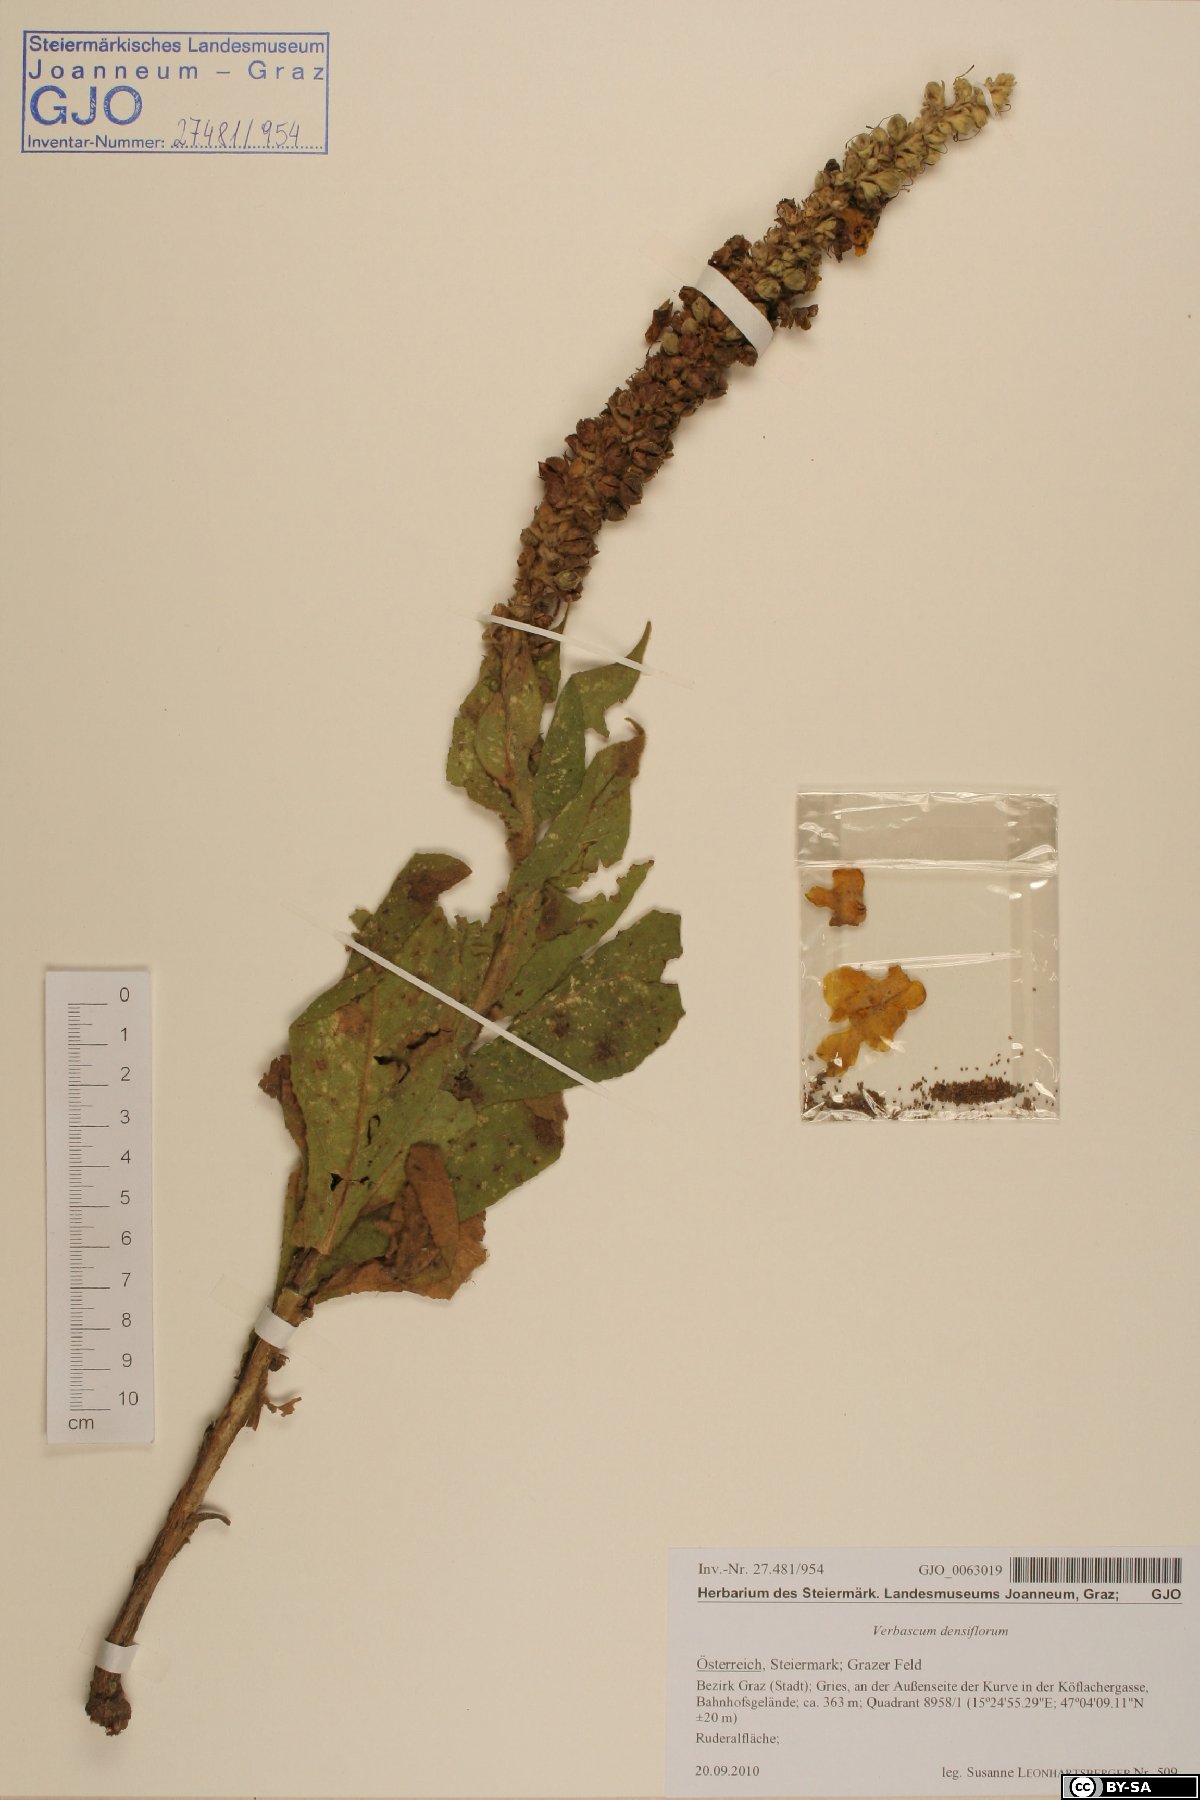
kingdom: Plantae
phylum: Tracheophyta
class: Magnoliopsida
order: Lamiales
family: Scrophulariaceae
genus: Verbascum
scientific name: Verbascum densiflorum
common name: Dense-flowered mullein
